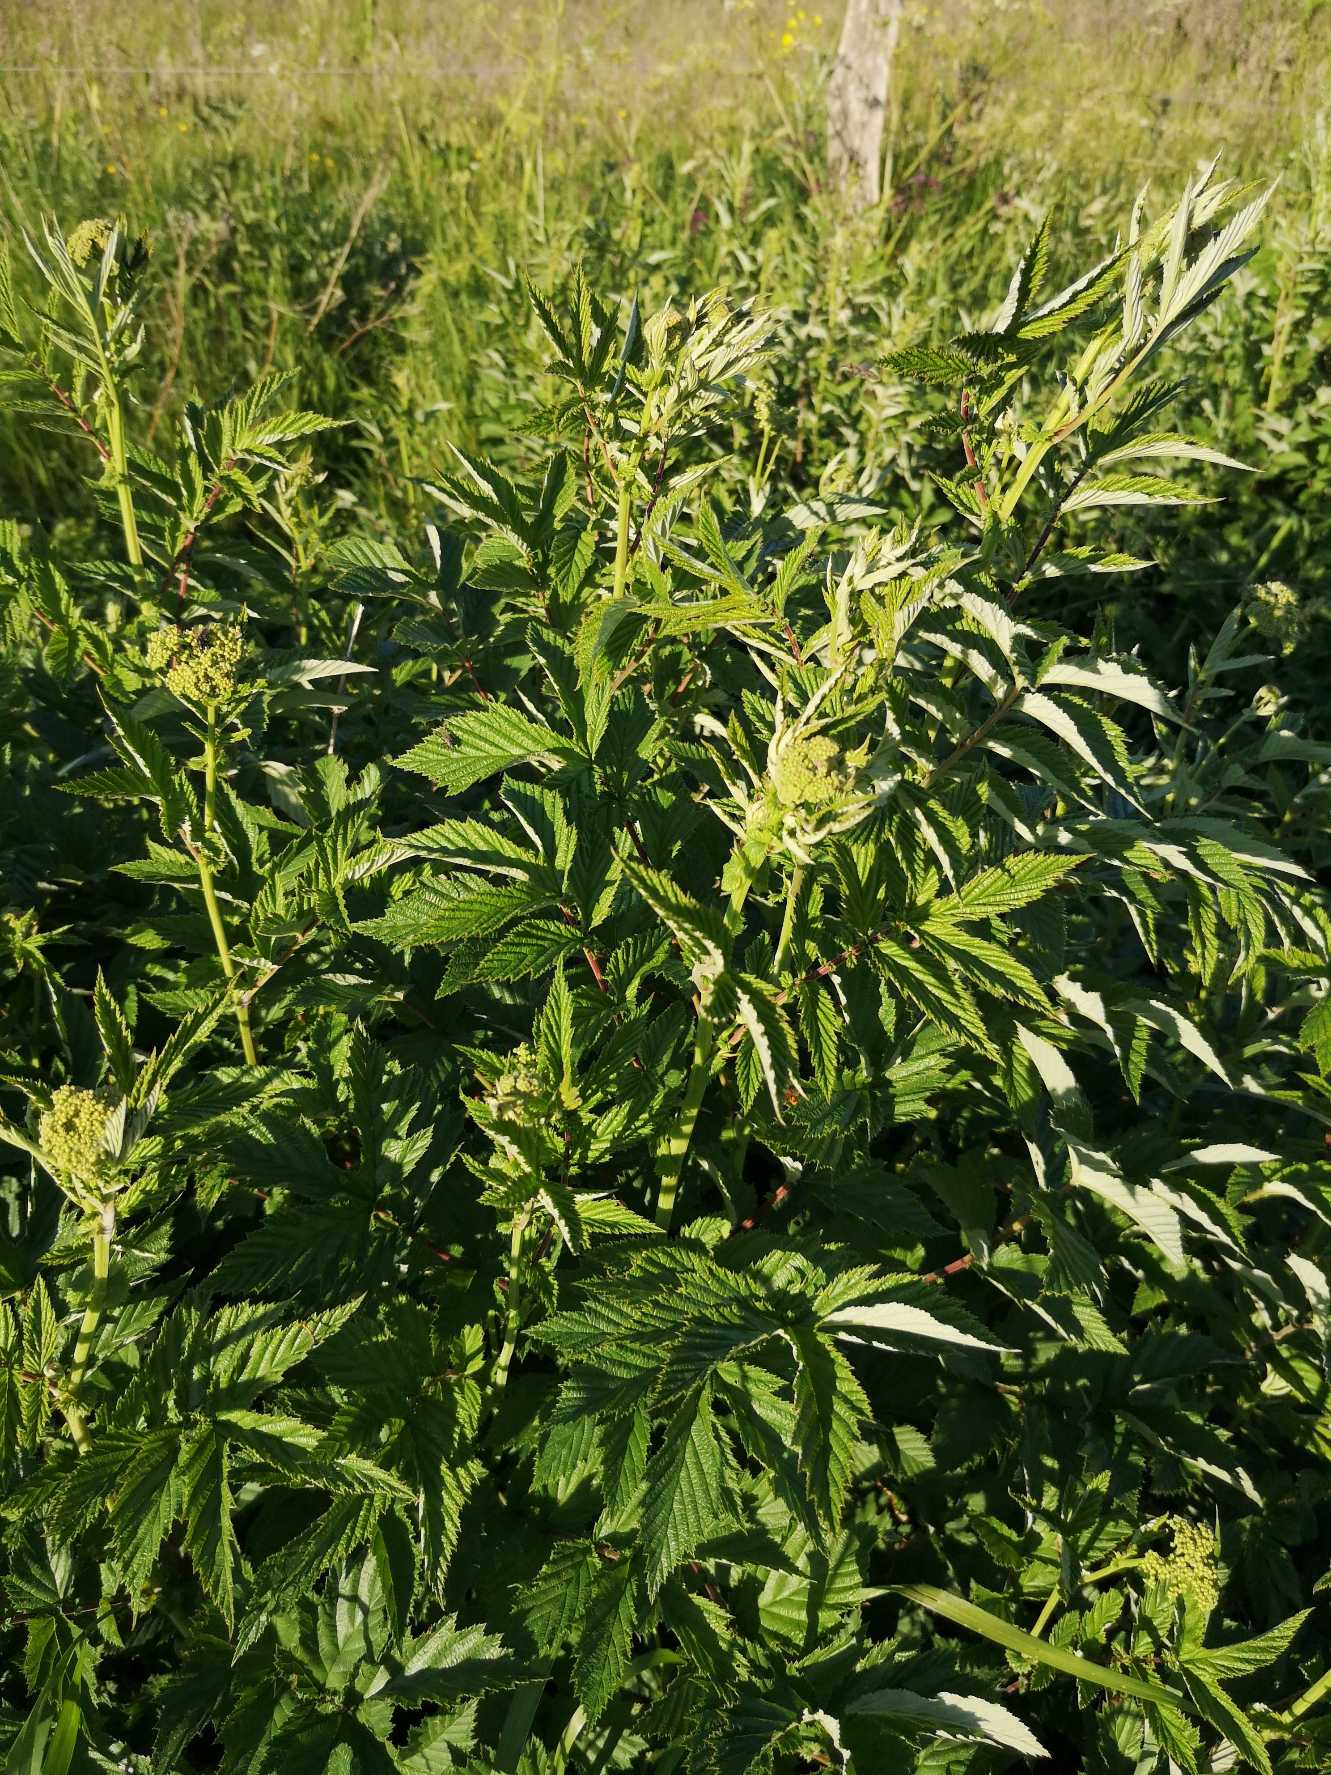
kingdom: Plantae
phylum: Tracheophyta
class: Magnoliopsida
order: Rosales
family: Rosaceae
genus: Filipendula
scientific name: Filipendula ulmaria
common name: Almindelig mjødurt
